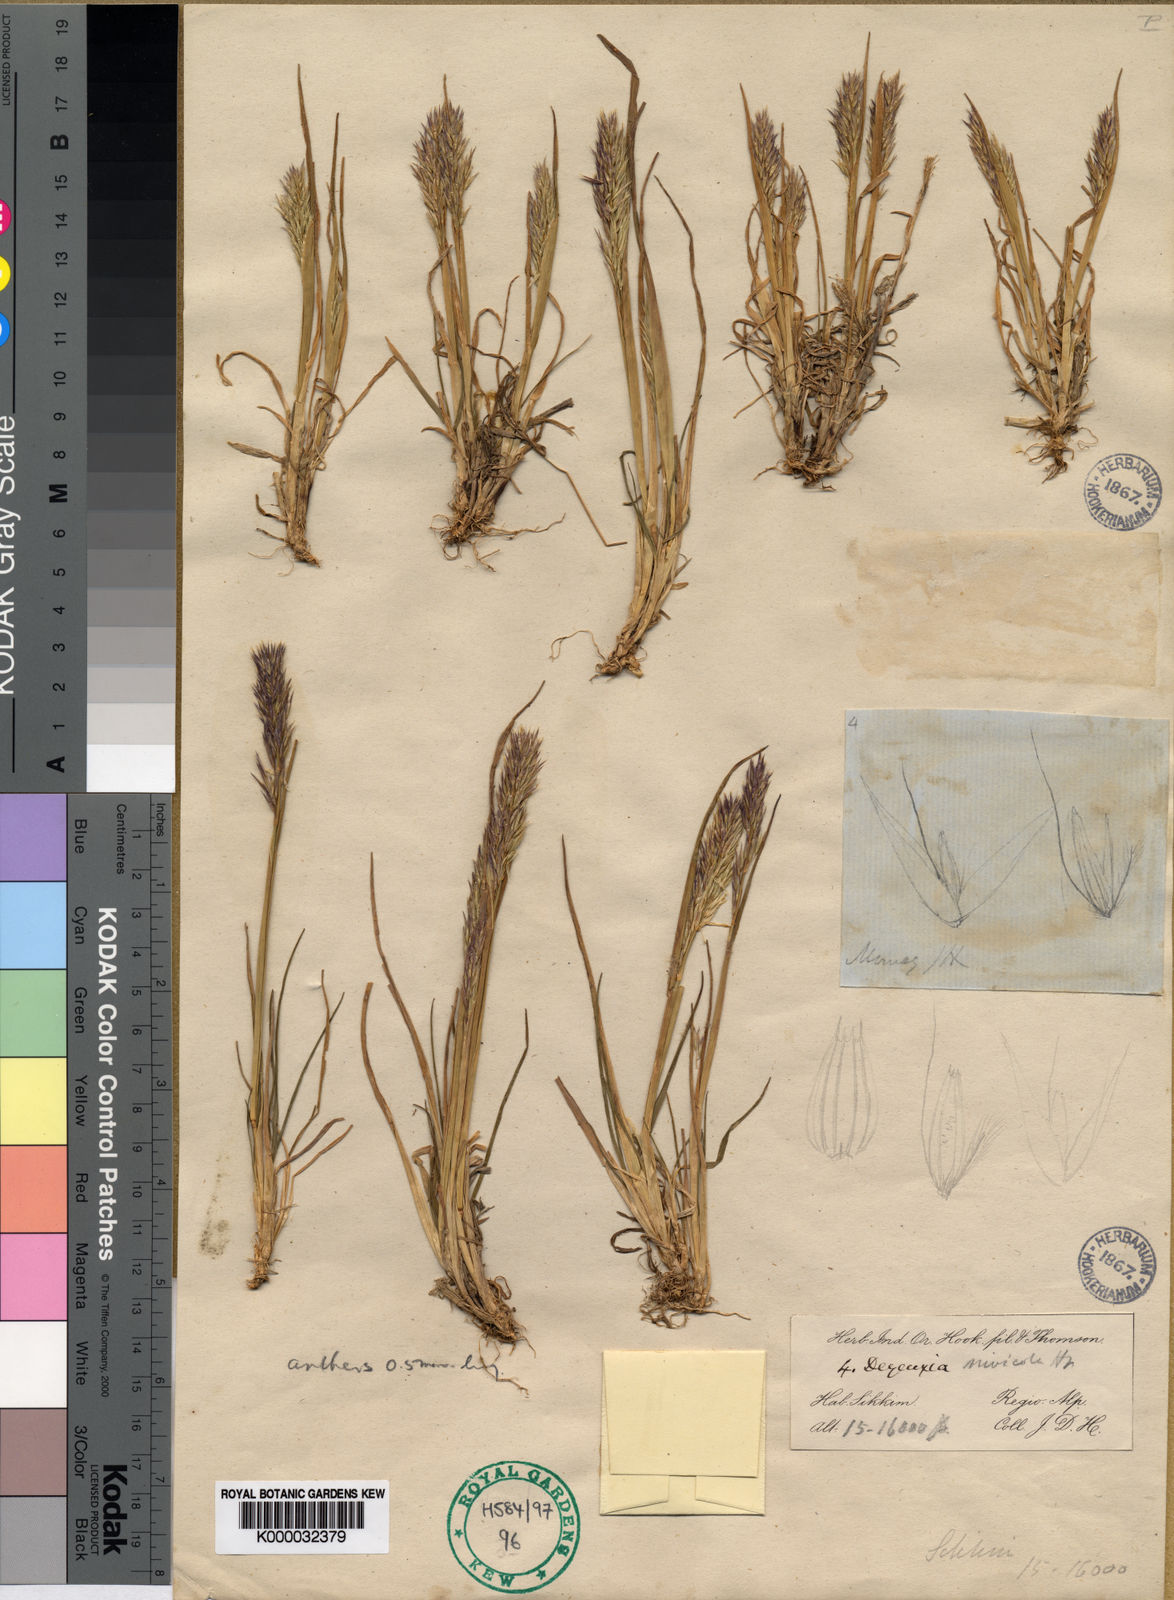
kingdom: Plantae
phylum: Tracheophyta
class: Liliopsida
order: Poales
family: Poaceae
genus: Calamagrostis
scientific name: Calamagrostis nivicola
